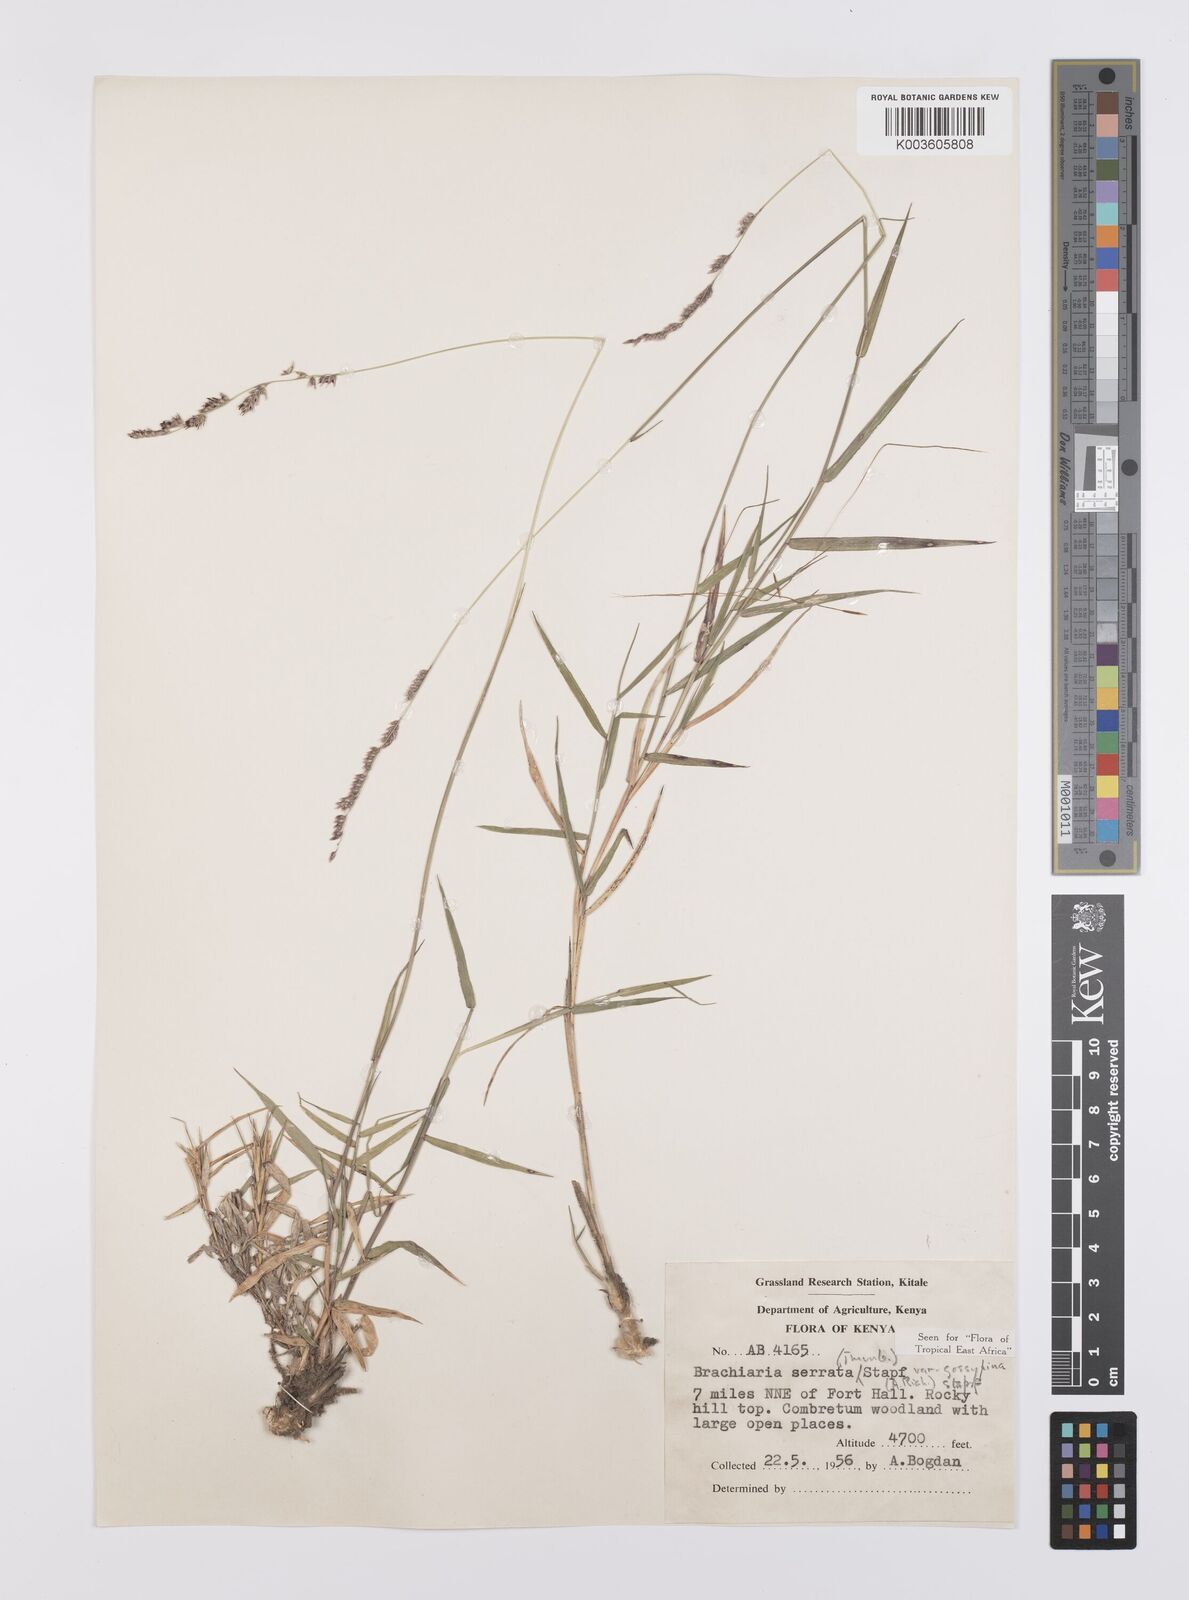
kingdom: Plantae
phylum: Tracheophyta
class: Liliopsida
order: Poales
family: Poaceae
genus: Urochloa
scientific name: Urochloa serrata
